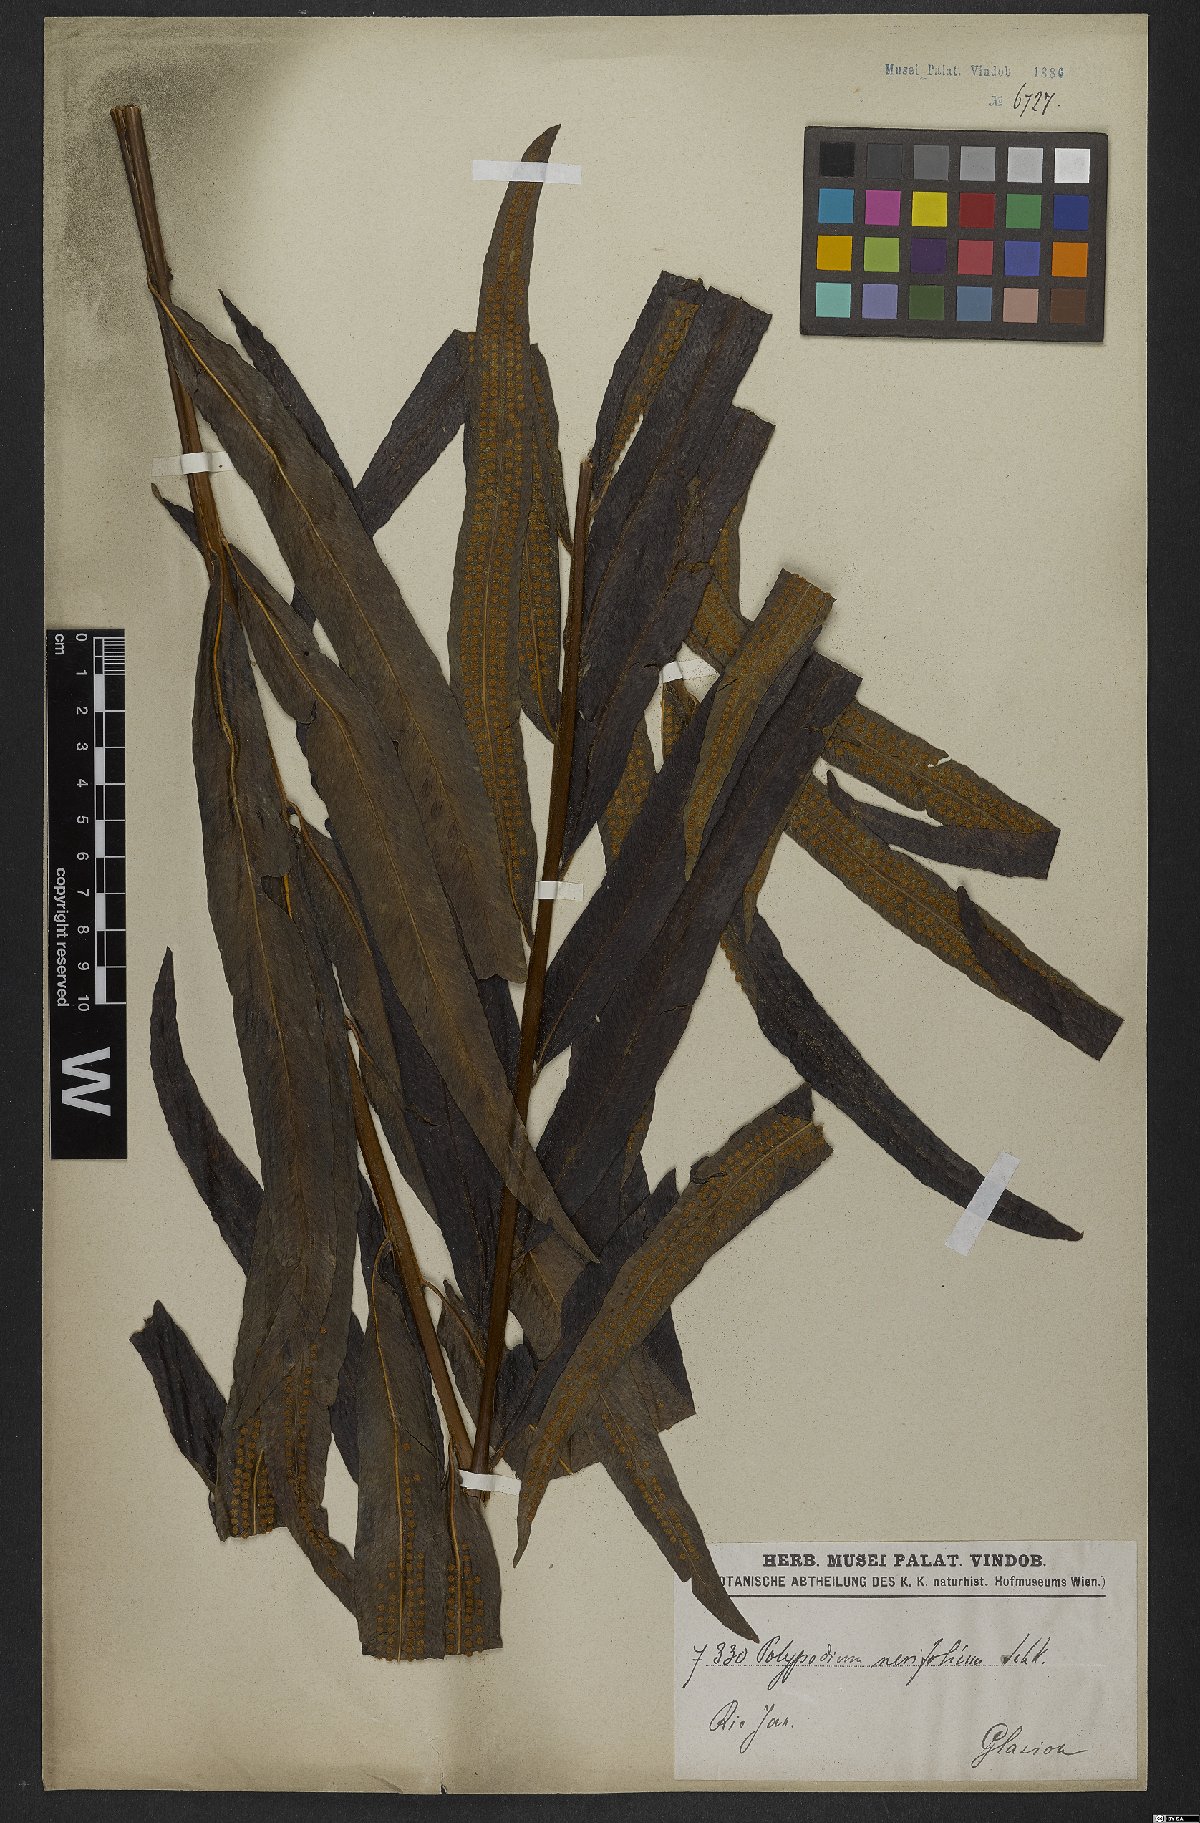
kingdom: Plantae
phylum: Tracheophyta
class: Polypodiopsida
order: Polypodiales
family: Polypodiaceae
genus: Serpocaulon
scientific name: Serpocaulon triseriale
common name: Angle-vein fern
